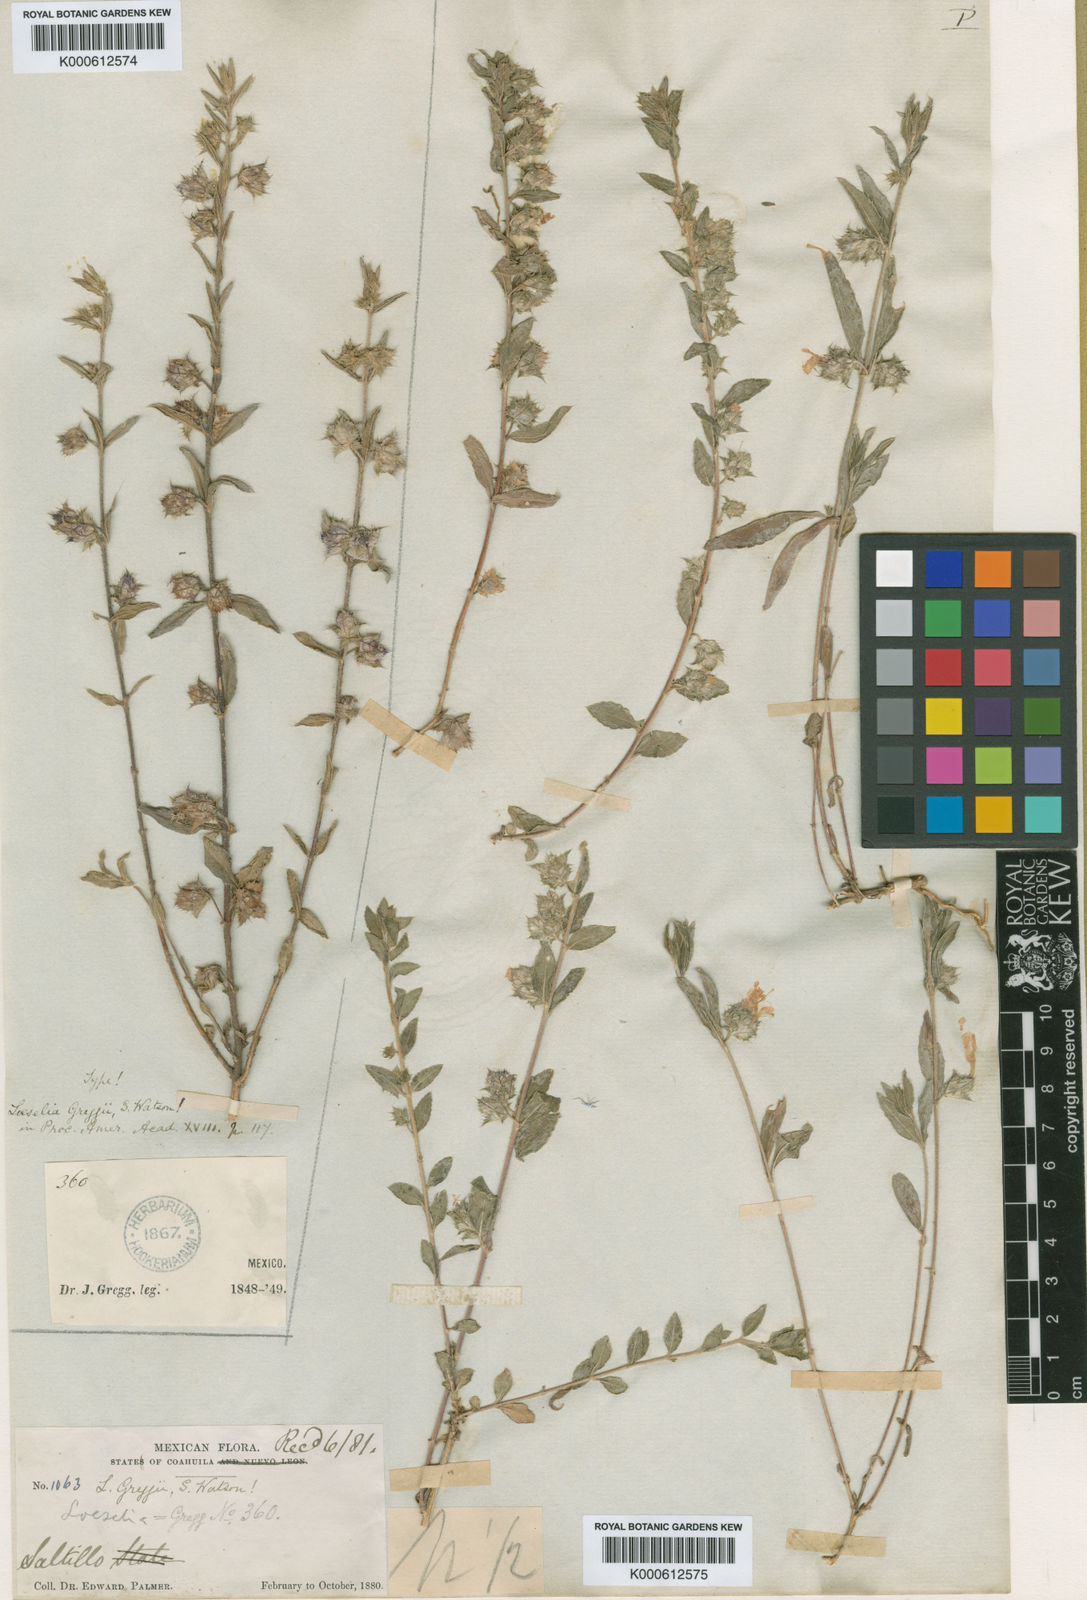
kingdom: Plantae
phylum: Tracheophyta
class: Magnoliopsida
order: Ericales
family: Polemoniaceae
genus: Loeselia
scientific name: Loeselia greggii
